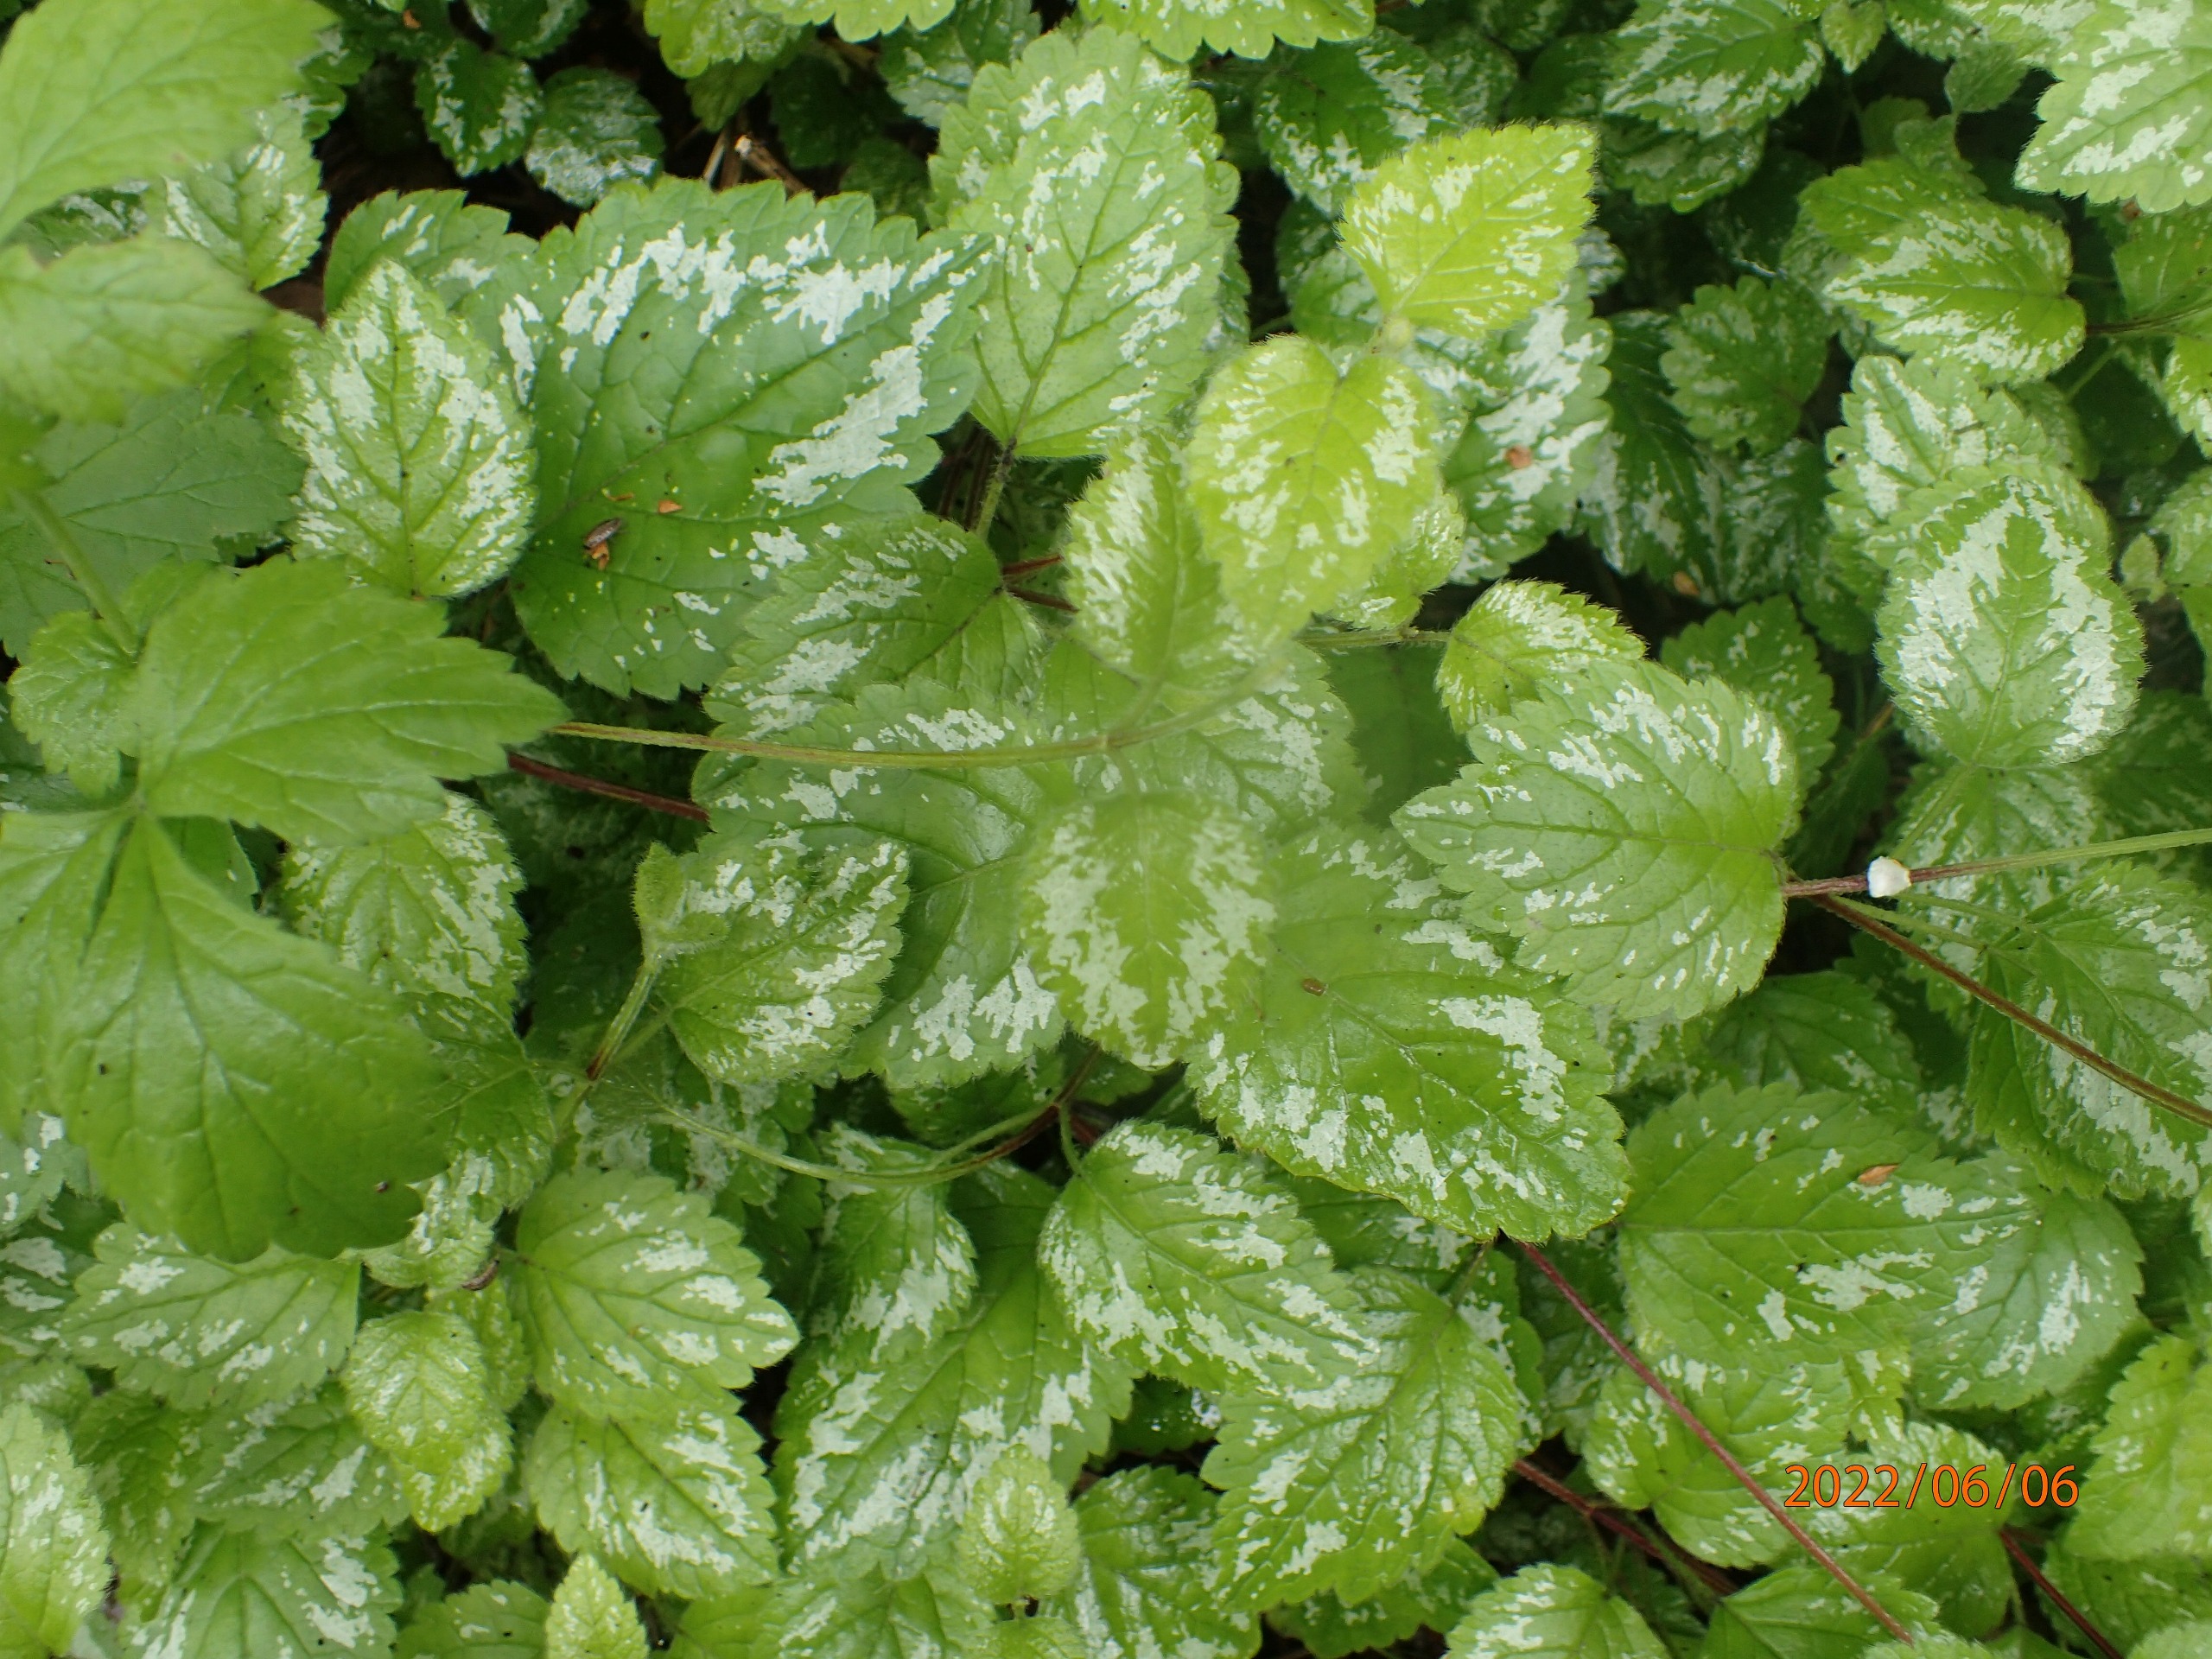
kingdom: Plantae
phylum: Tracheophyta
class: Magnoliopsida
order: Lamiales
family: Lamiaceae
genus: Lamium
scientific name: Lamium galeobdolon
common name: Have-guldnælde
